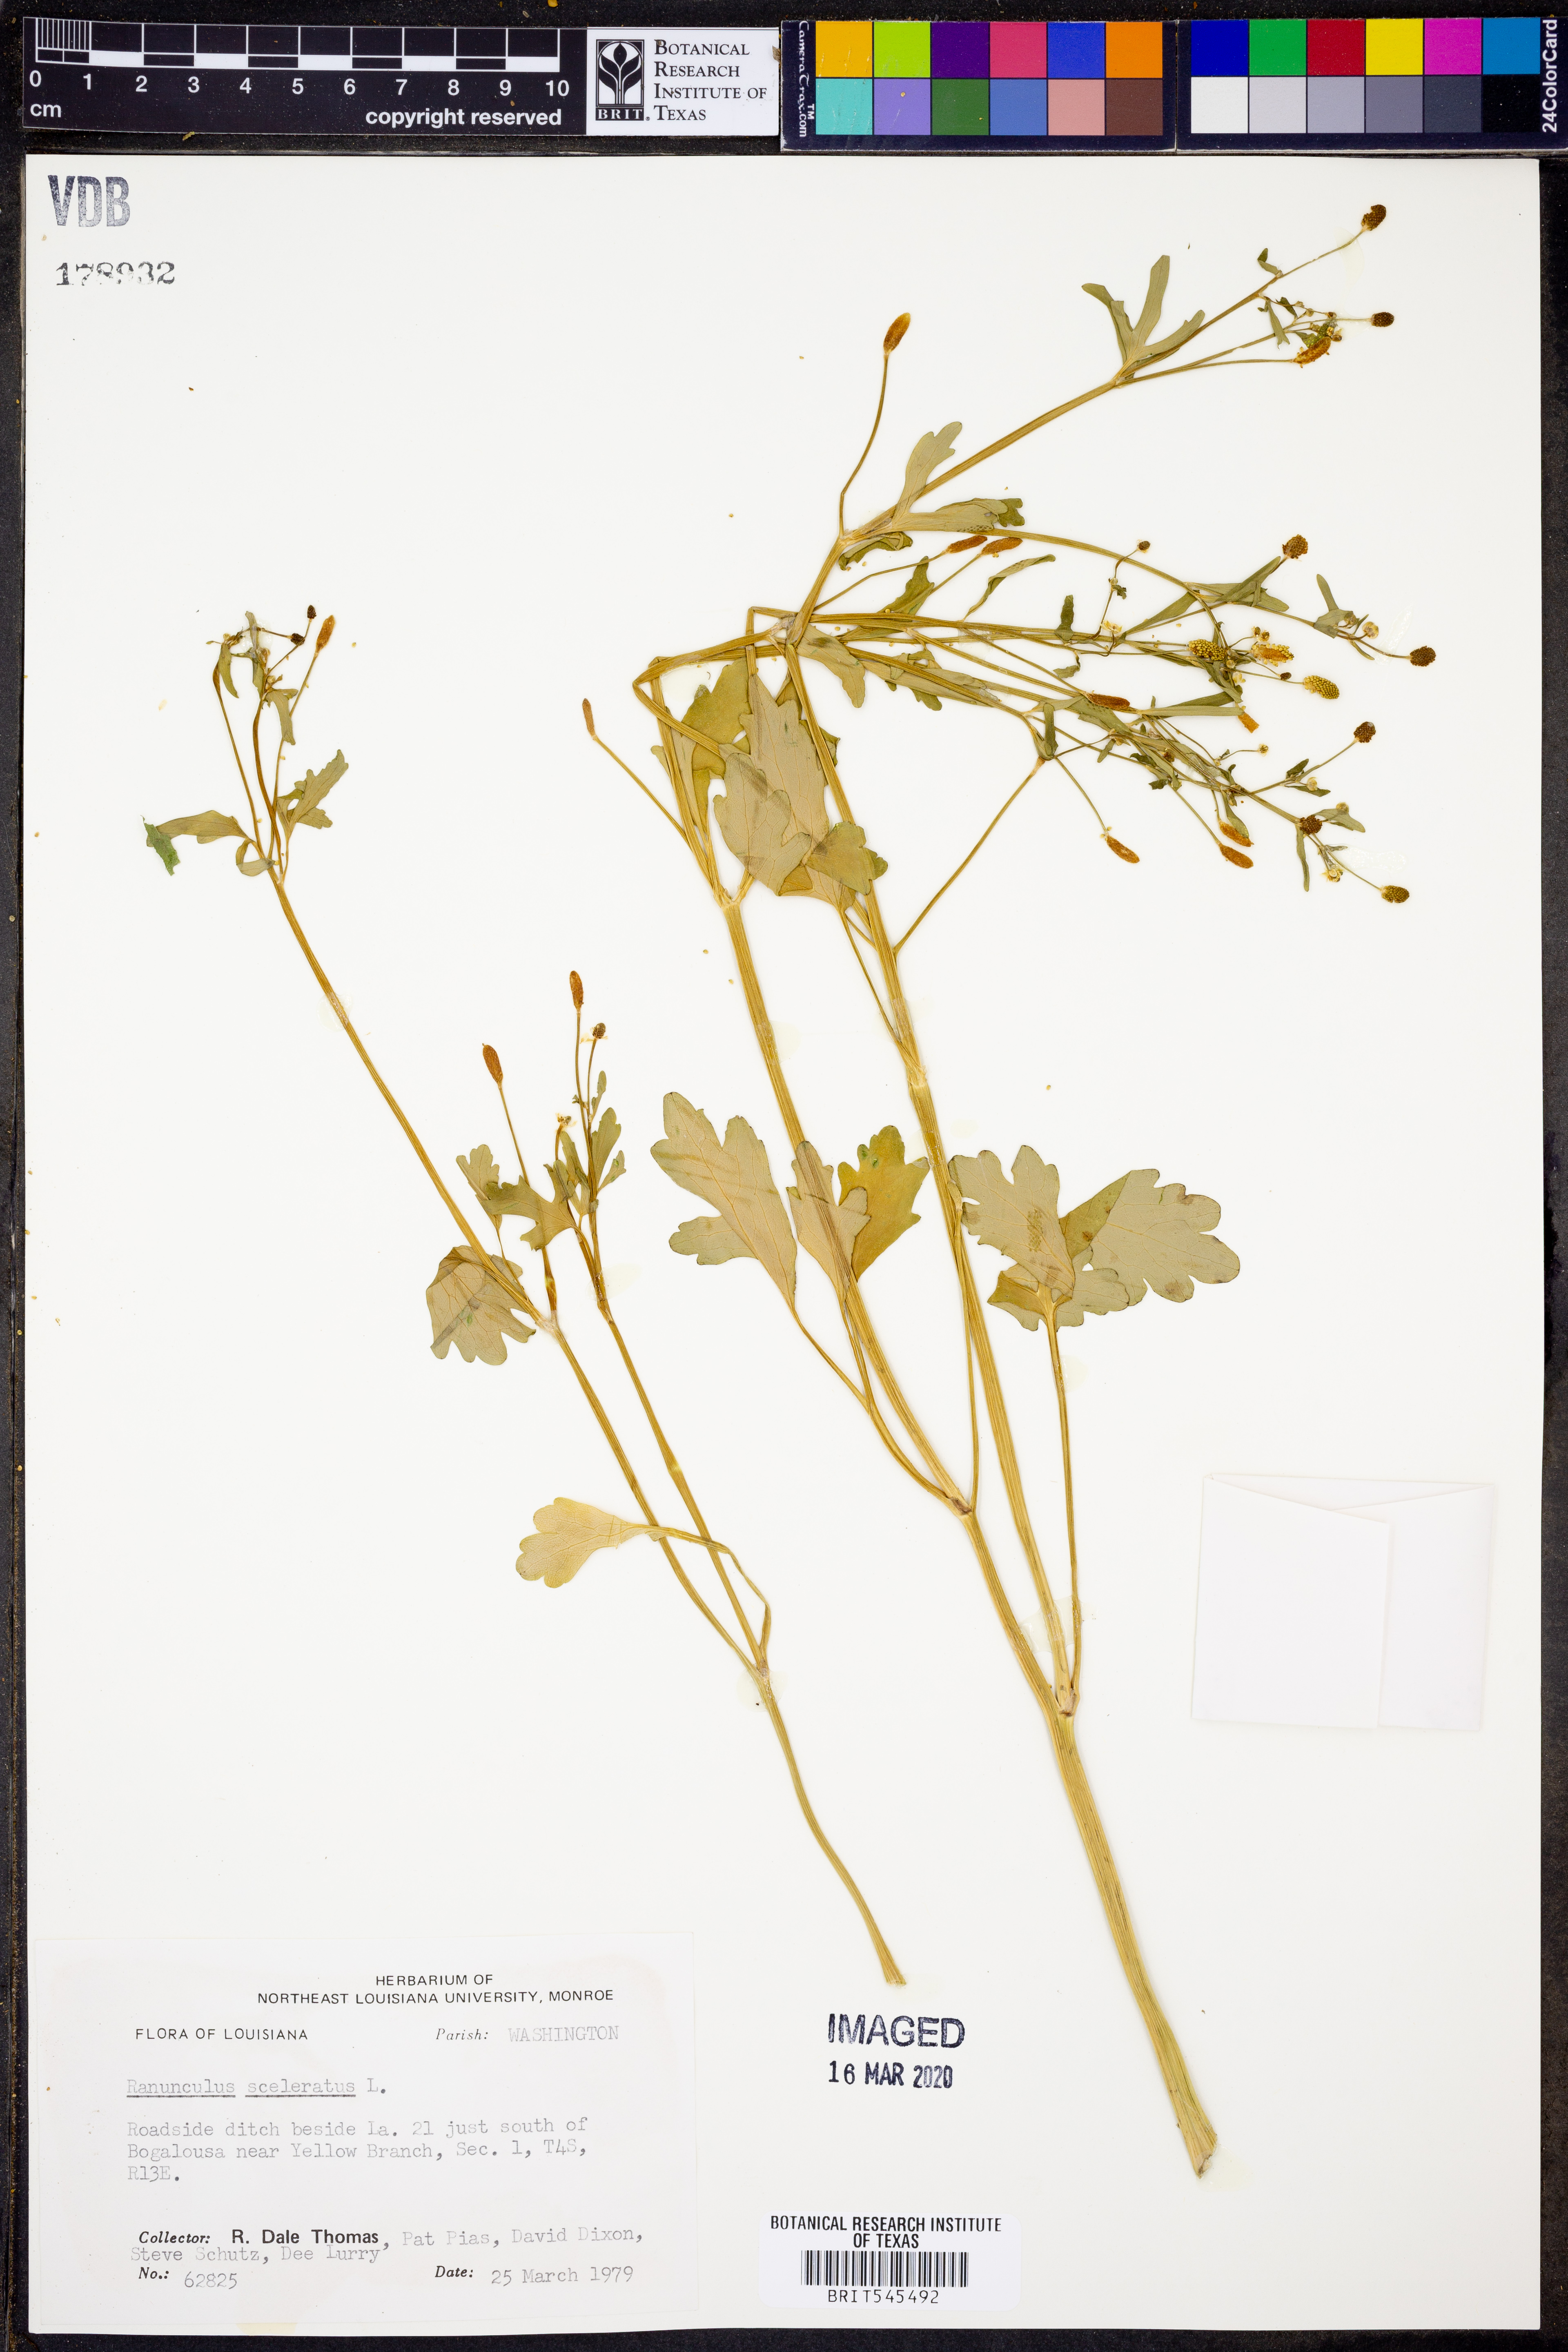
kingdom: Plantae
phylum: Tracheophyta
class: Magnoliopsida
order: Ranunculales
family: Ranunculaceae
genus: Ranunculus
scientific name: Ranunculus sceleratus
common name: Celery-leaved buttercup
